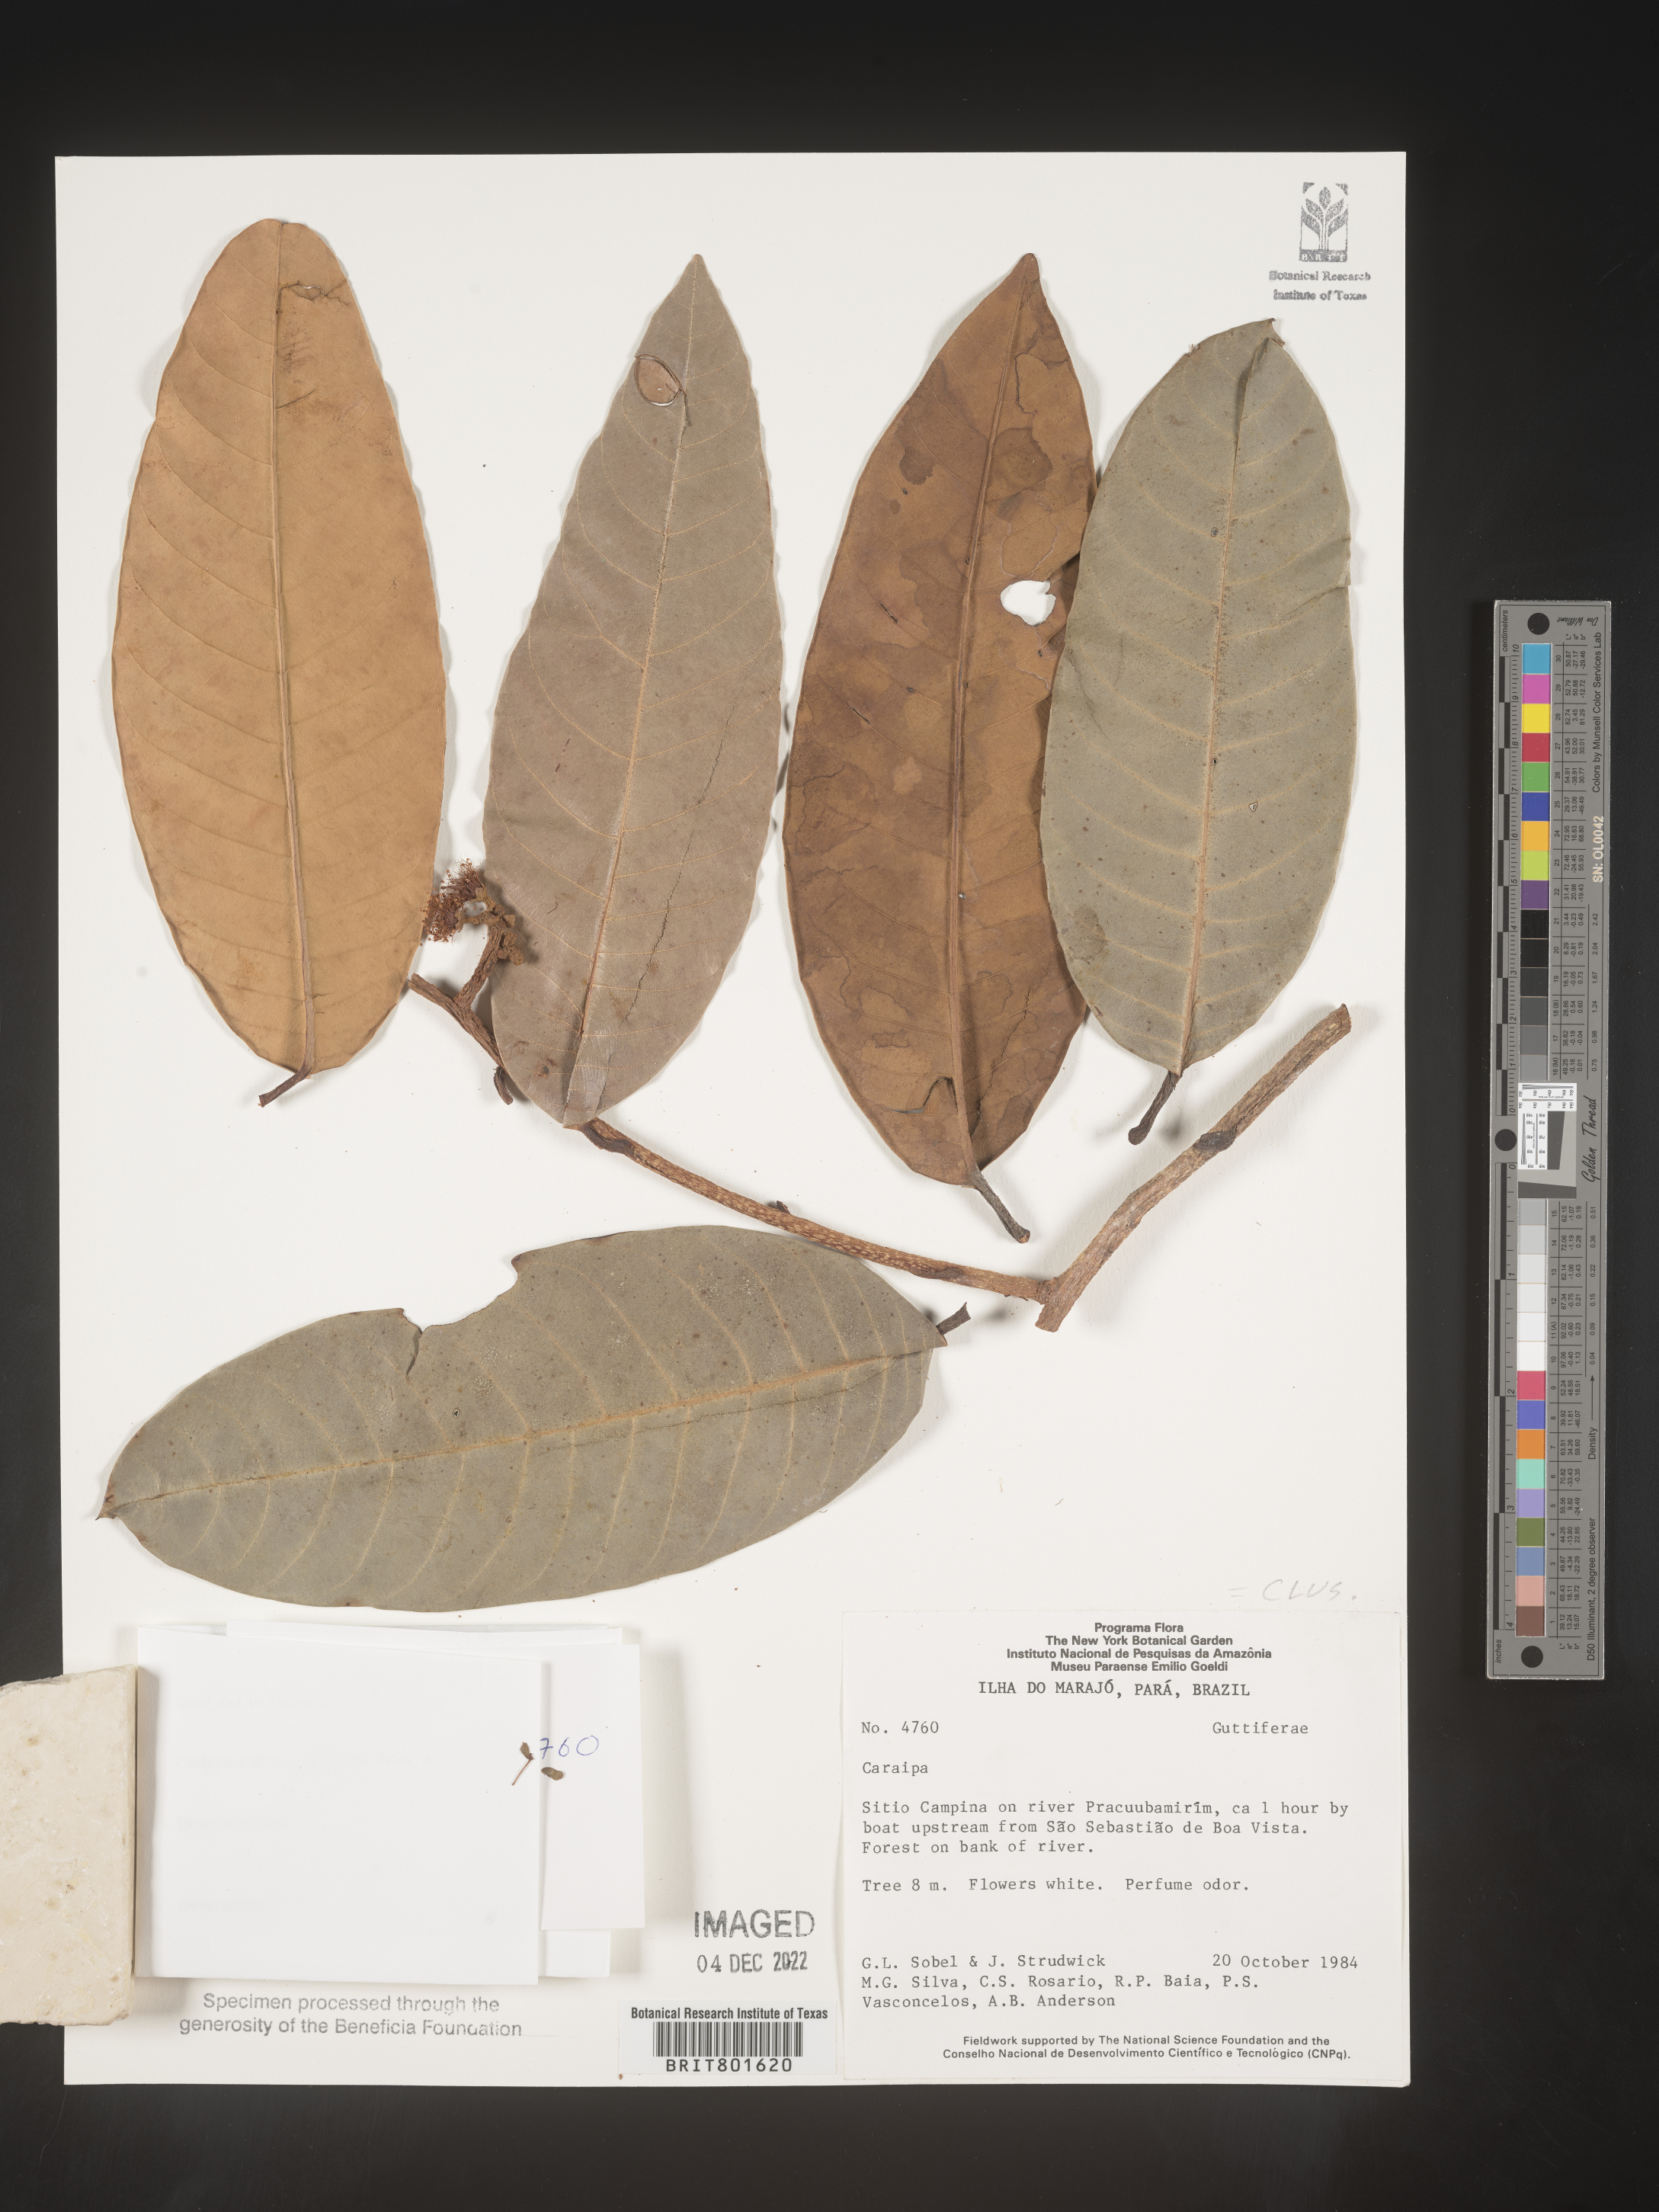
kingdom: Plantae
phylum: Tracheophyta
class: Magnoliopsida
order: Malpighiales
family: Calophyllaceae
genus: Caraipa
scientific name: Caraipa
